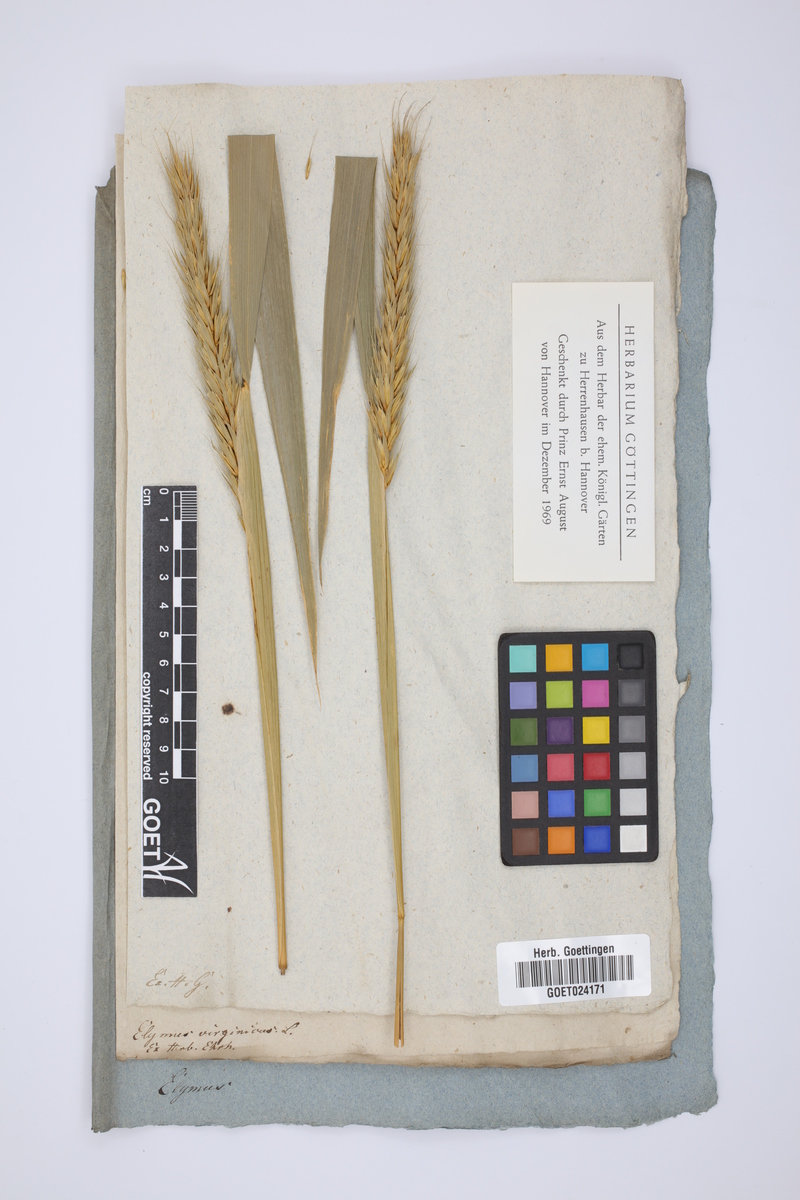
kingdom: Plantae
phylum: Tracheophyta
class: Liliopsida
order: Poales
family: Poaceae
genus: Elymus
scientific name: Elymus virginicus
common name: Common eastern wildrye
